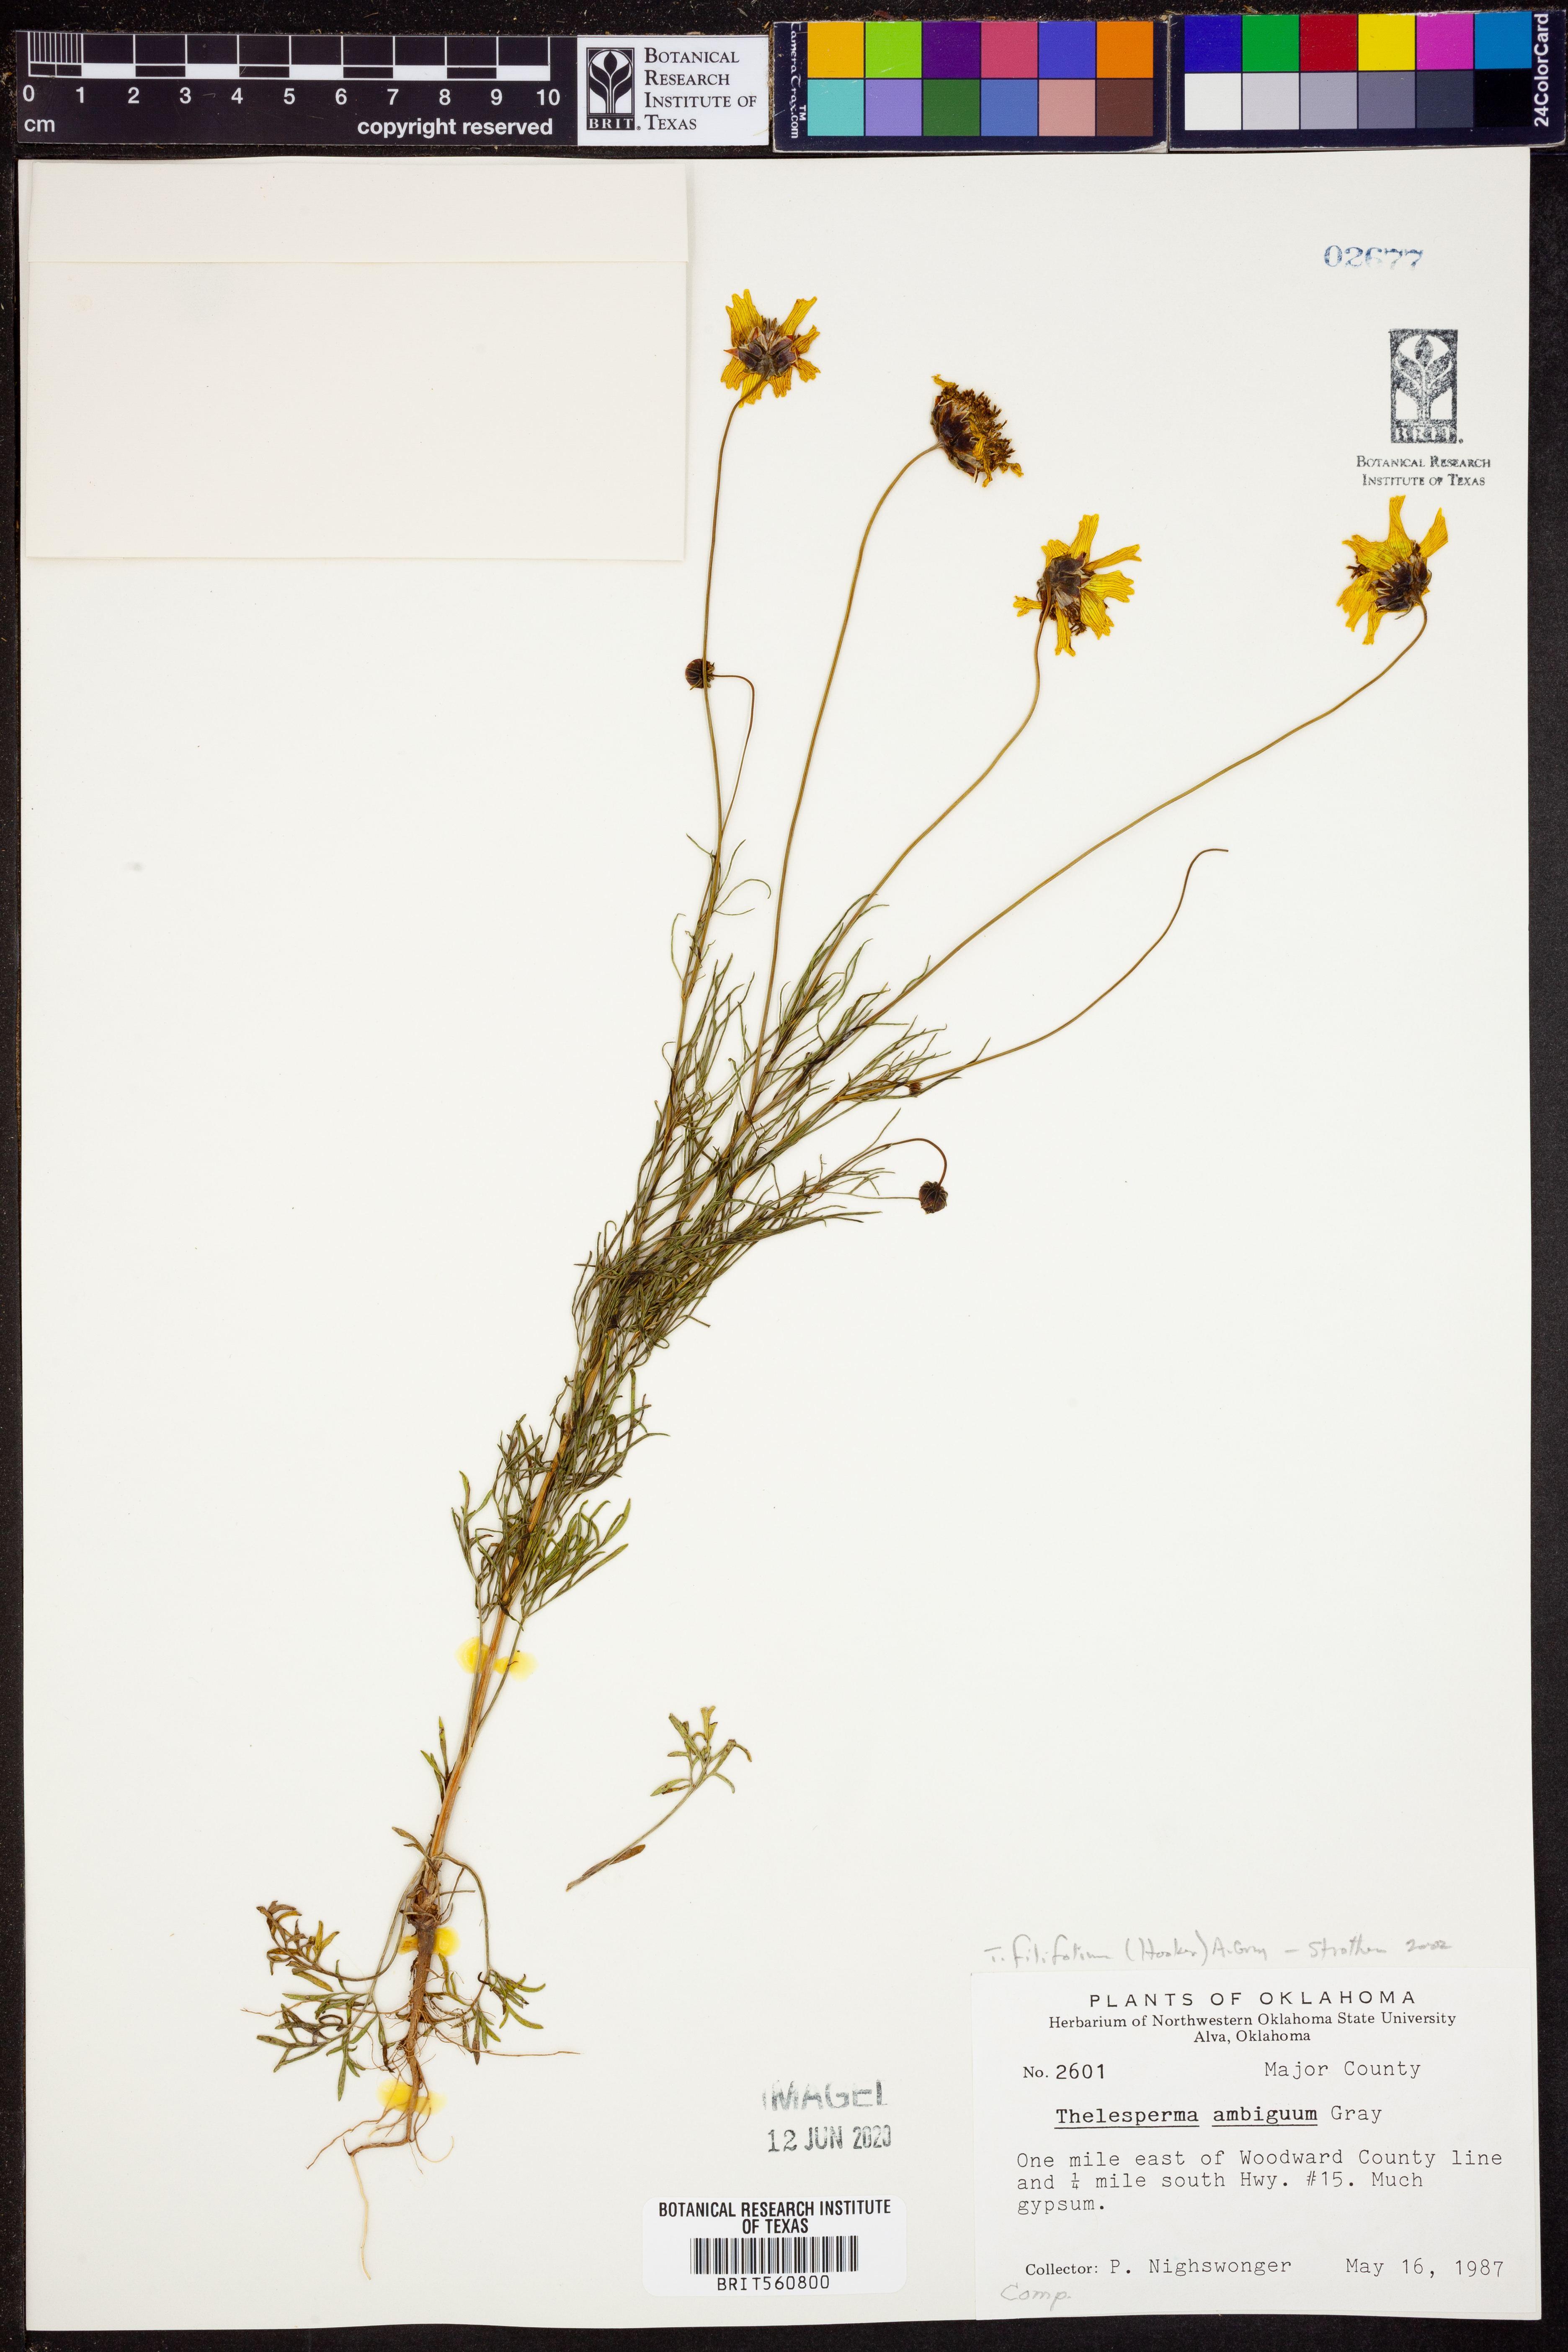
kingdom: Plantae
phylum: Tracheophyta
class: Magnoliopsida
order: Asterales
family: Asteraceae
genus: Thelesperma
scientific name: Thelesperma filifolium
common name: Stiff greenthread
